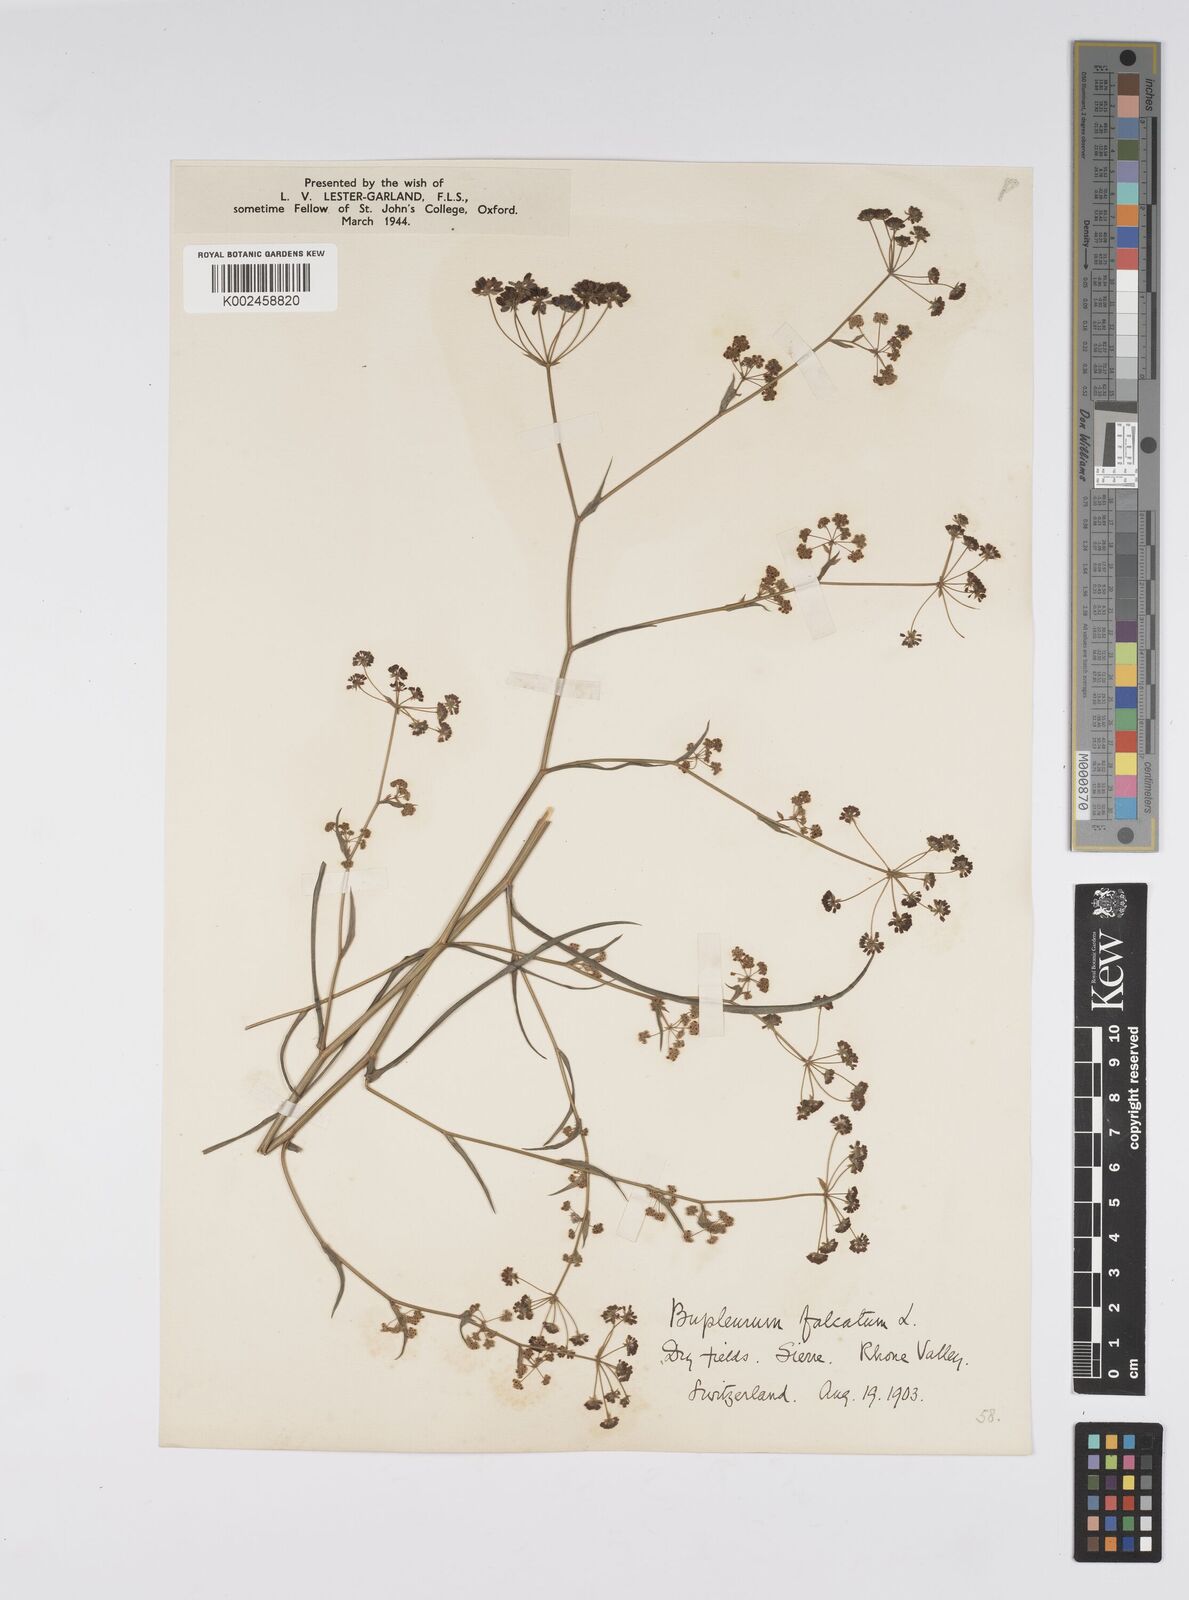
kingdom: Plantae
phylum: Tracheophyta
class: Magnoliopsida
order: Apiales
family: Apiaceae
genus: Bupleurum
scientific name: Bupleurum falcatum
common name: Sickle-leaved hare's-ear
